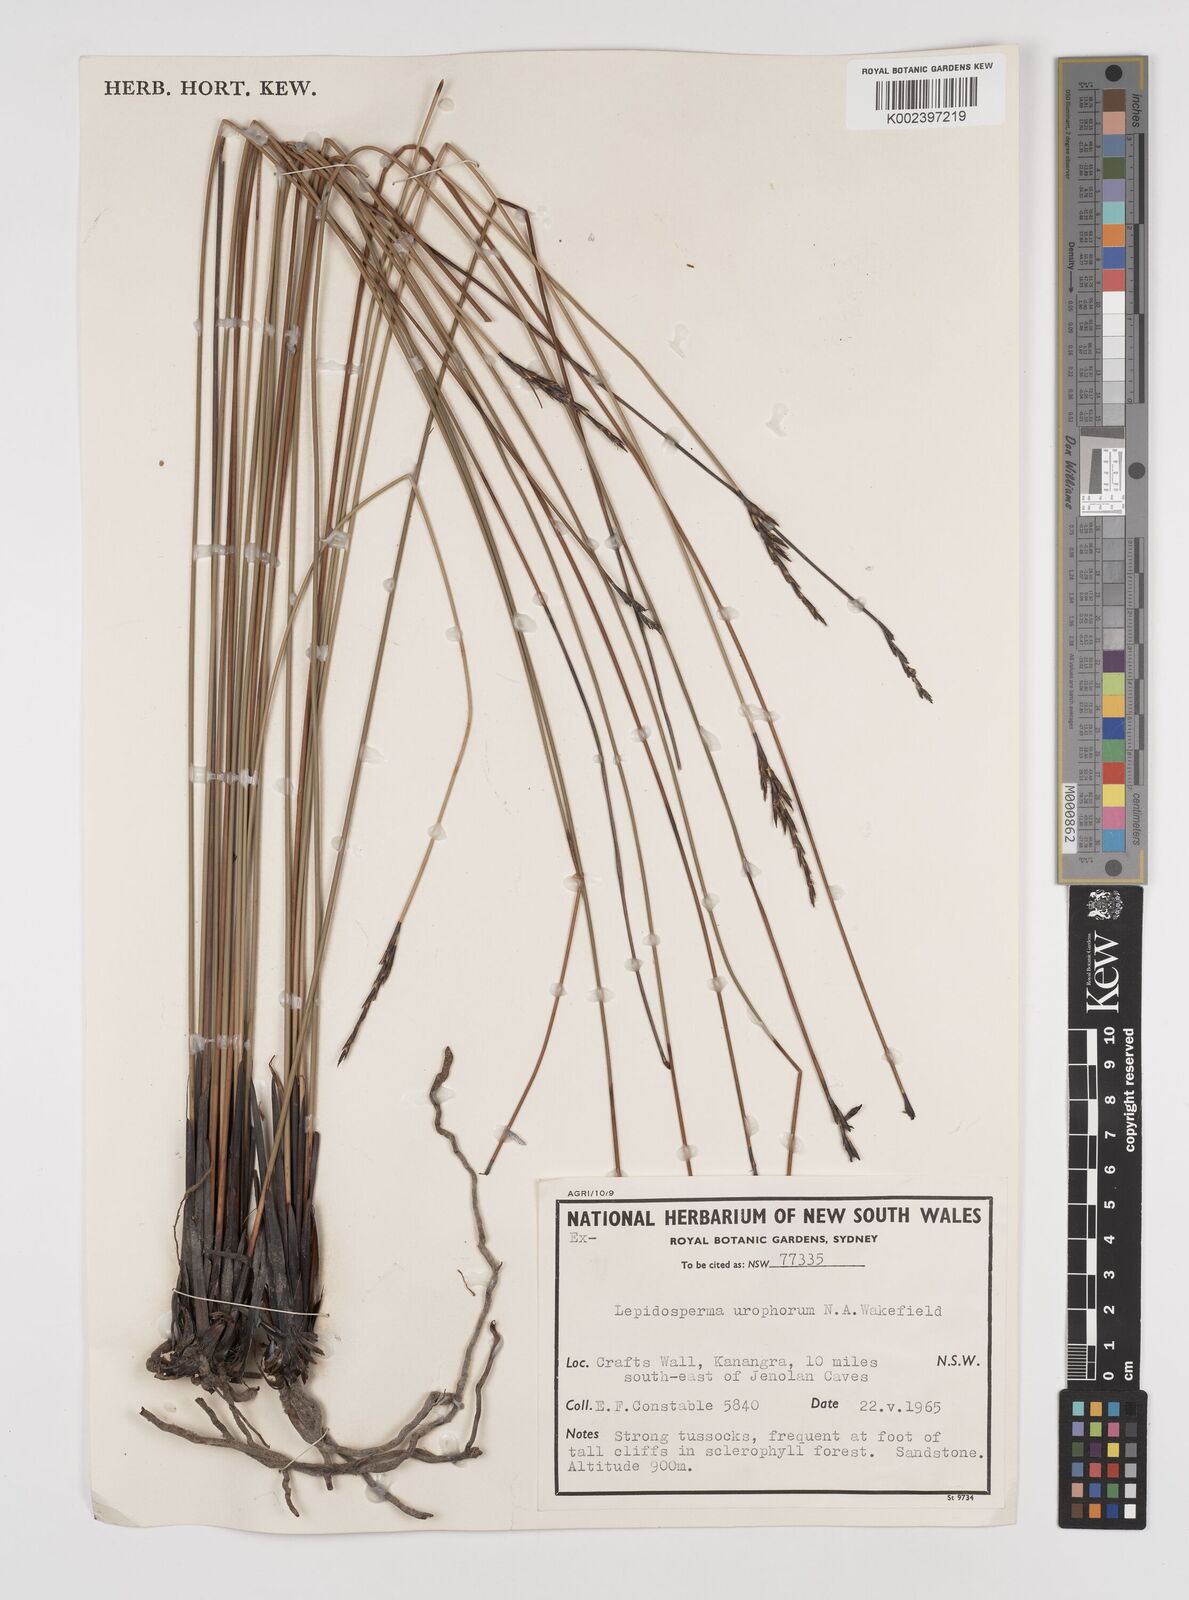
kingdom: Plantae
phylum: Tracheophyta
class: Liliopsida
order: Poales
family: Cyperaceae
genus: Lepidosperma
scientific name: Lepidosperma urophorum
